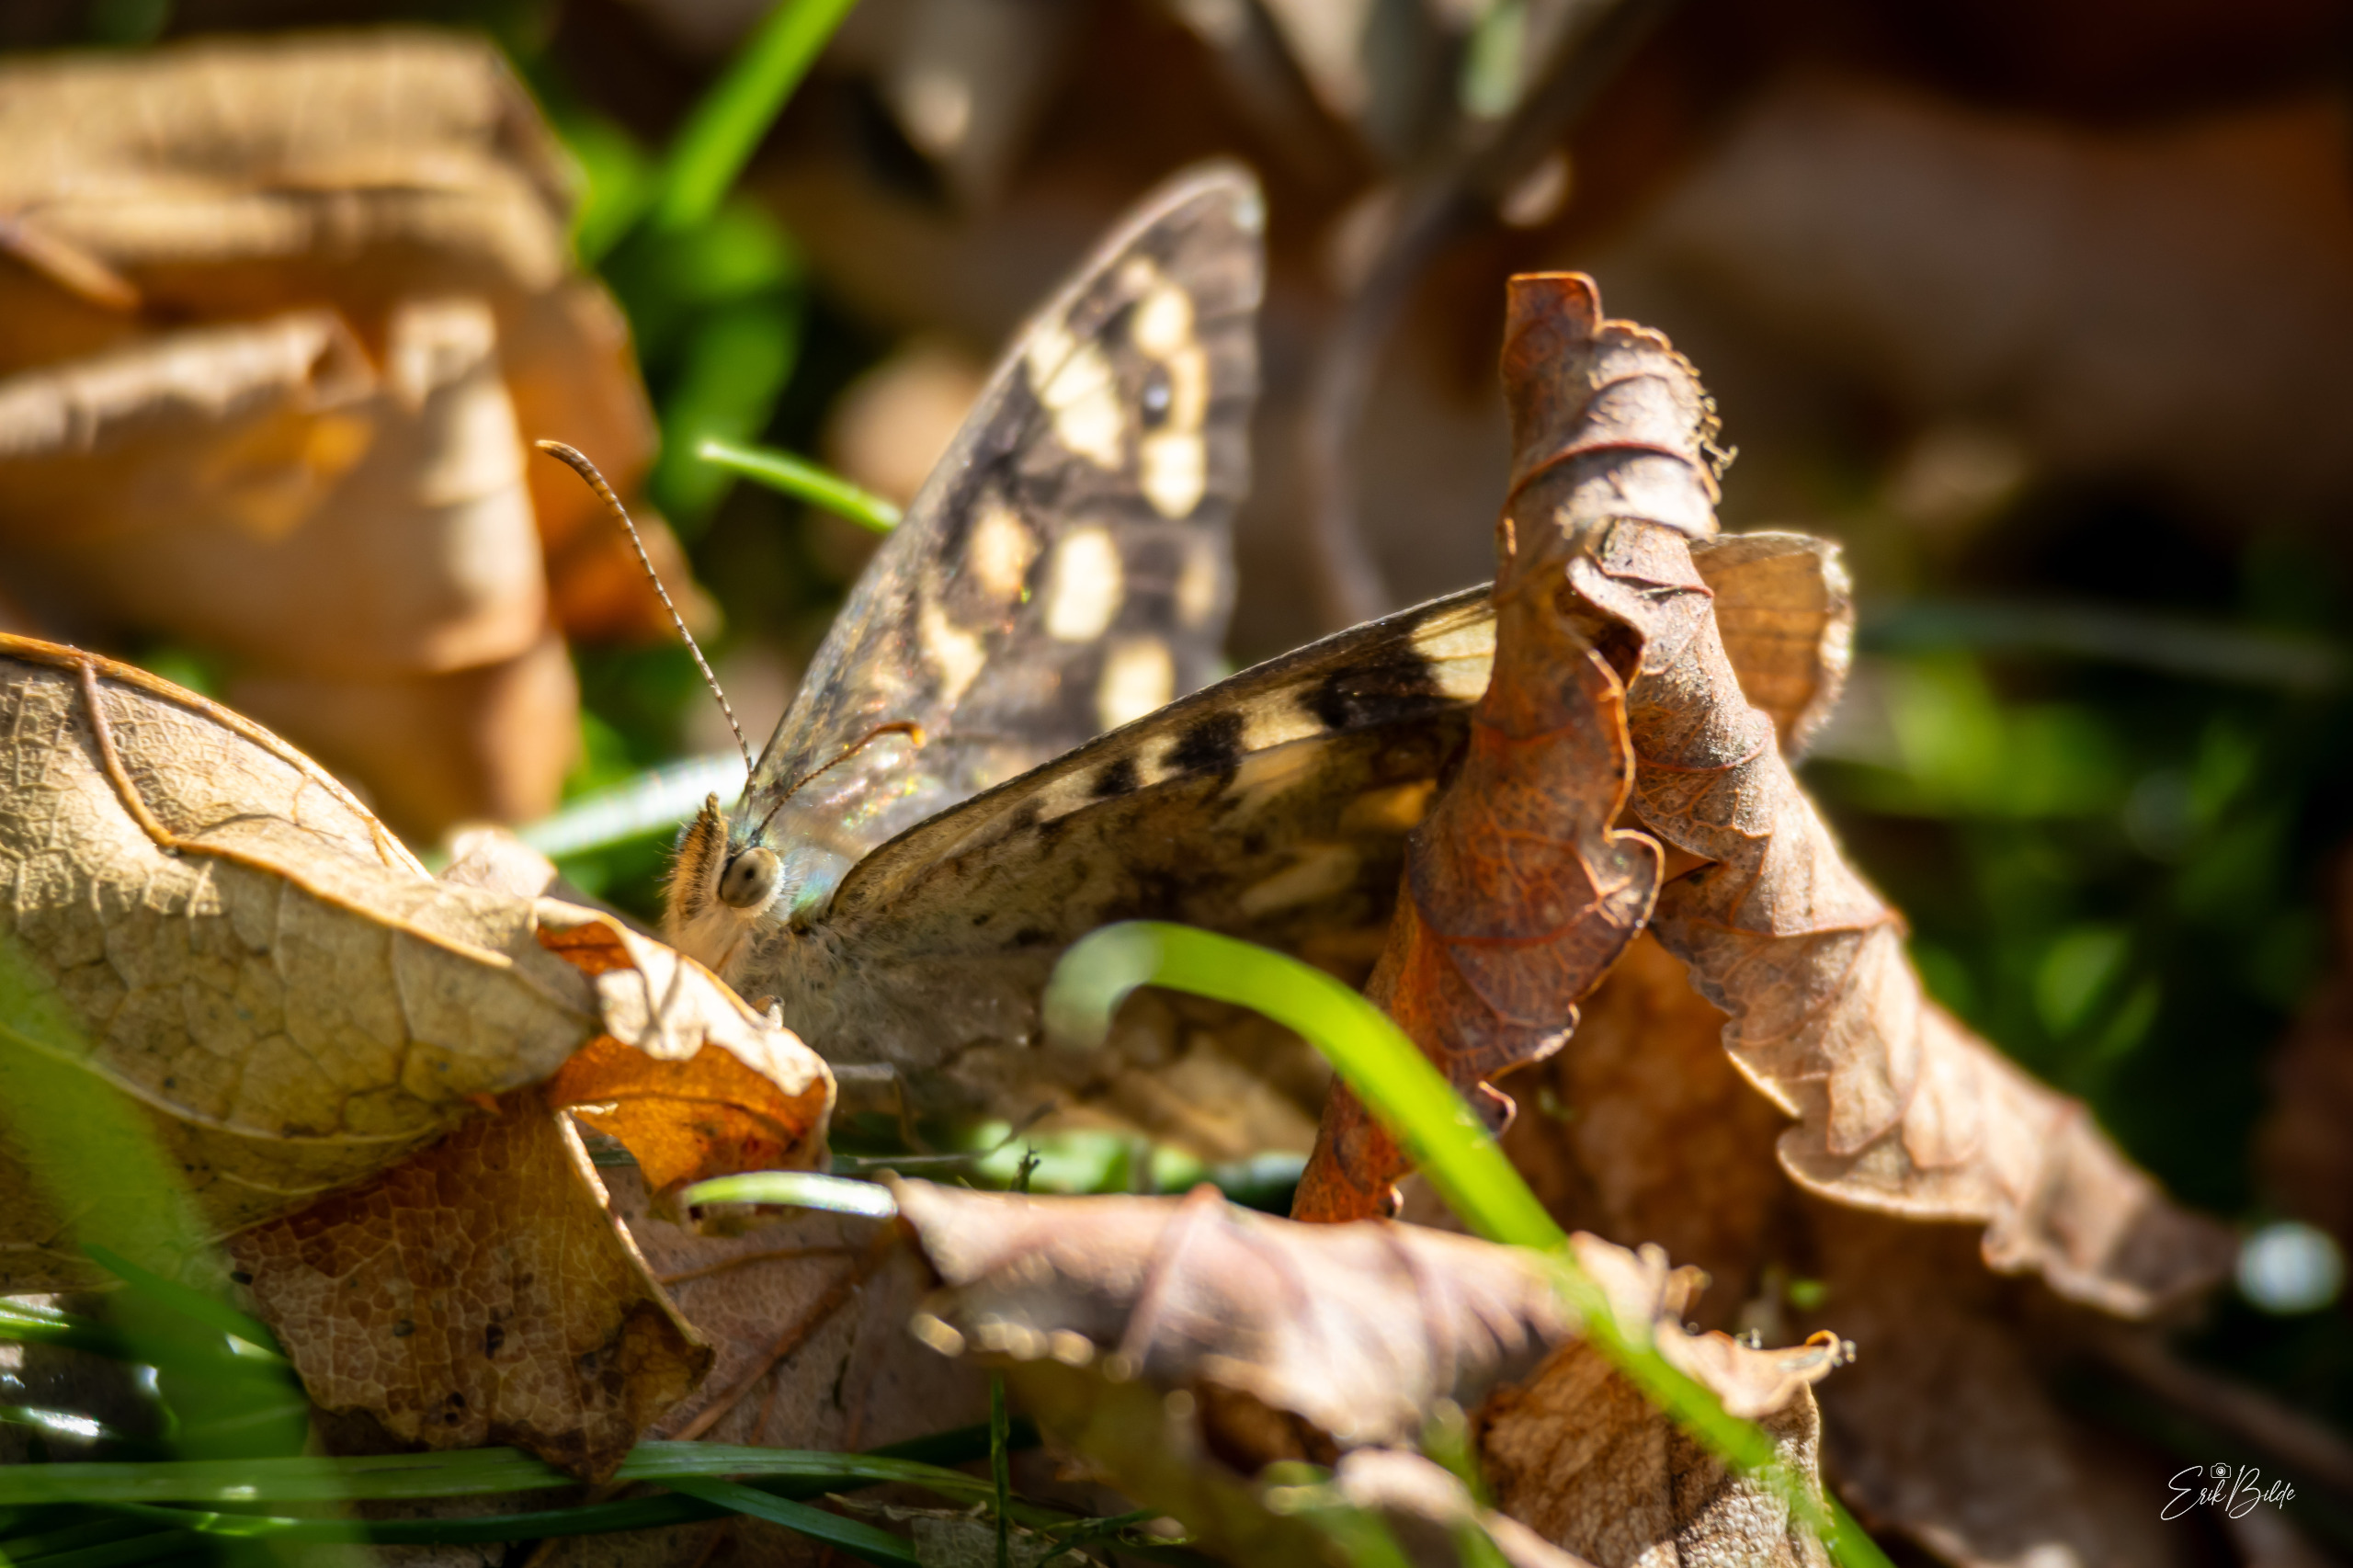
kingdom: Animalia
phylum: Arthropoda
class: Insecta
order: Lepidoptera
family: Nymphalidae
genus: Pararge
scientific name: Pararge aegeria
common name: Skovrandøje
